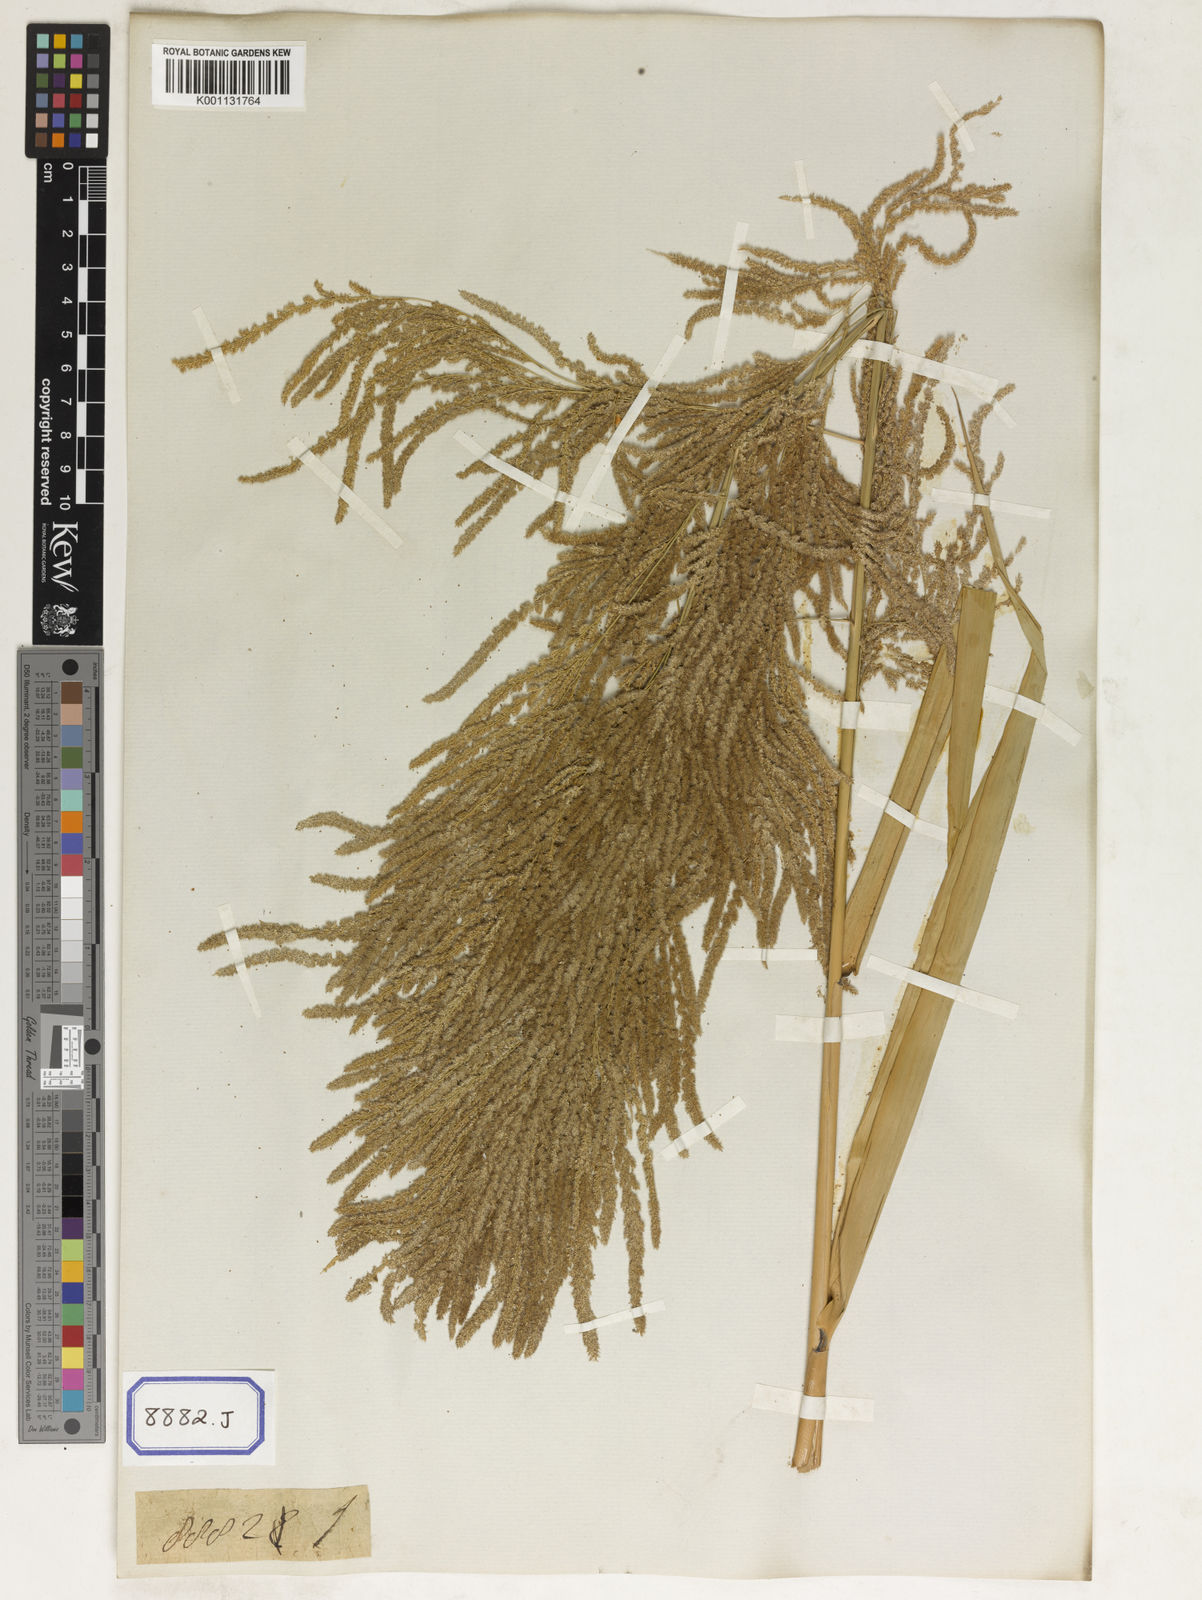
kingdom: Plantae
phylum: Tracheophyta
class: Liliopsida
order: Poales
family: Poaceae
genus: Thysanolaena
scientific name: Thysanolaena latifolia
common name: Tiger grass
